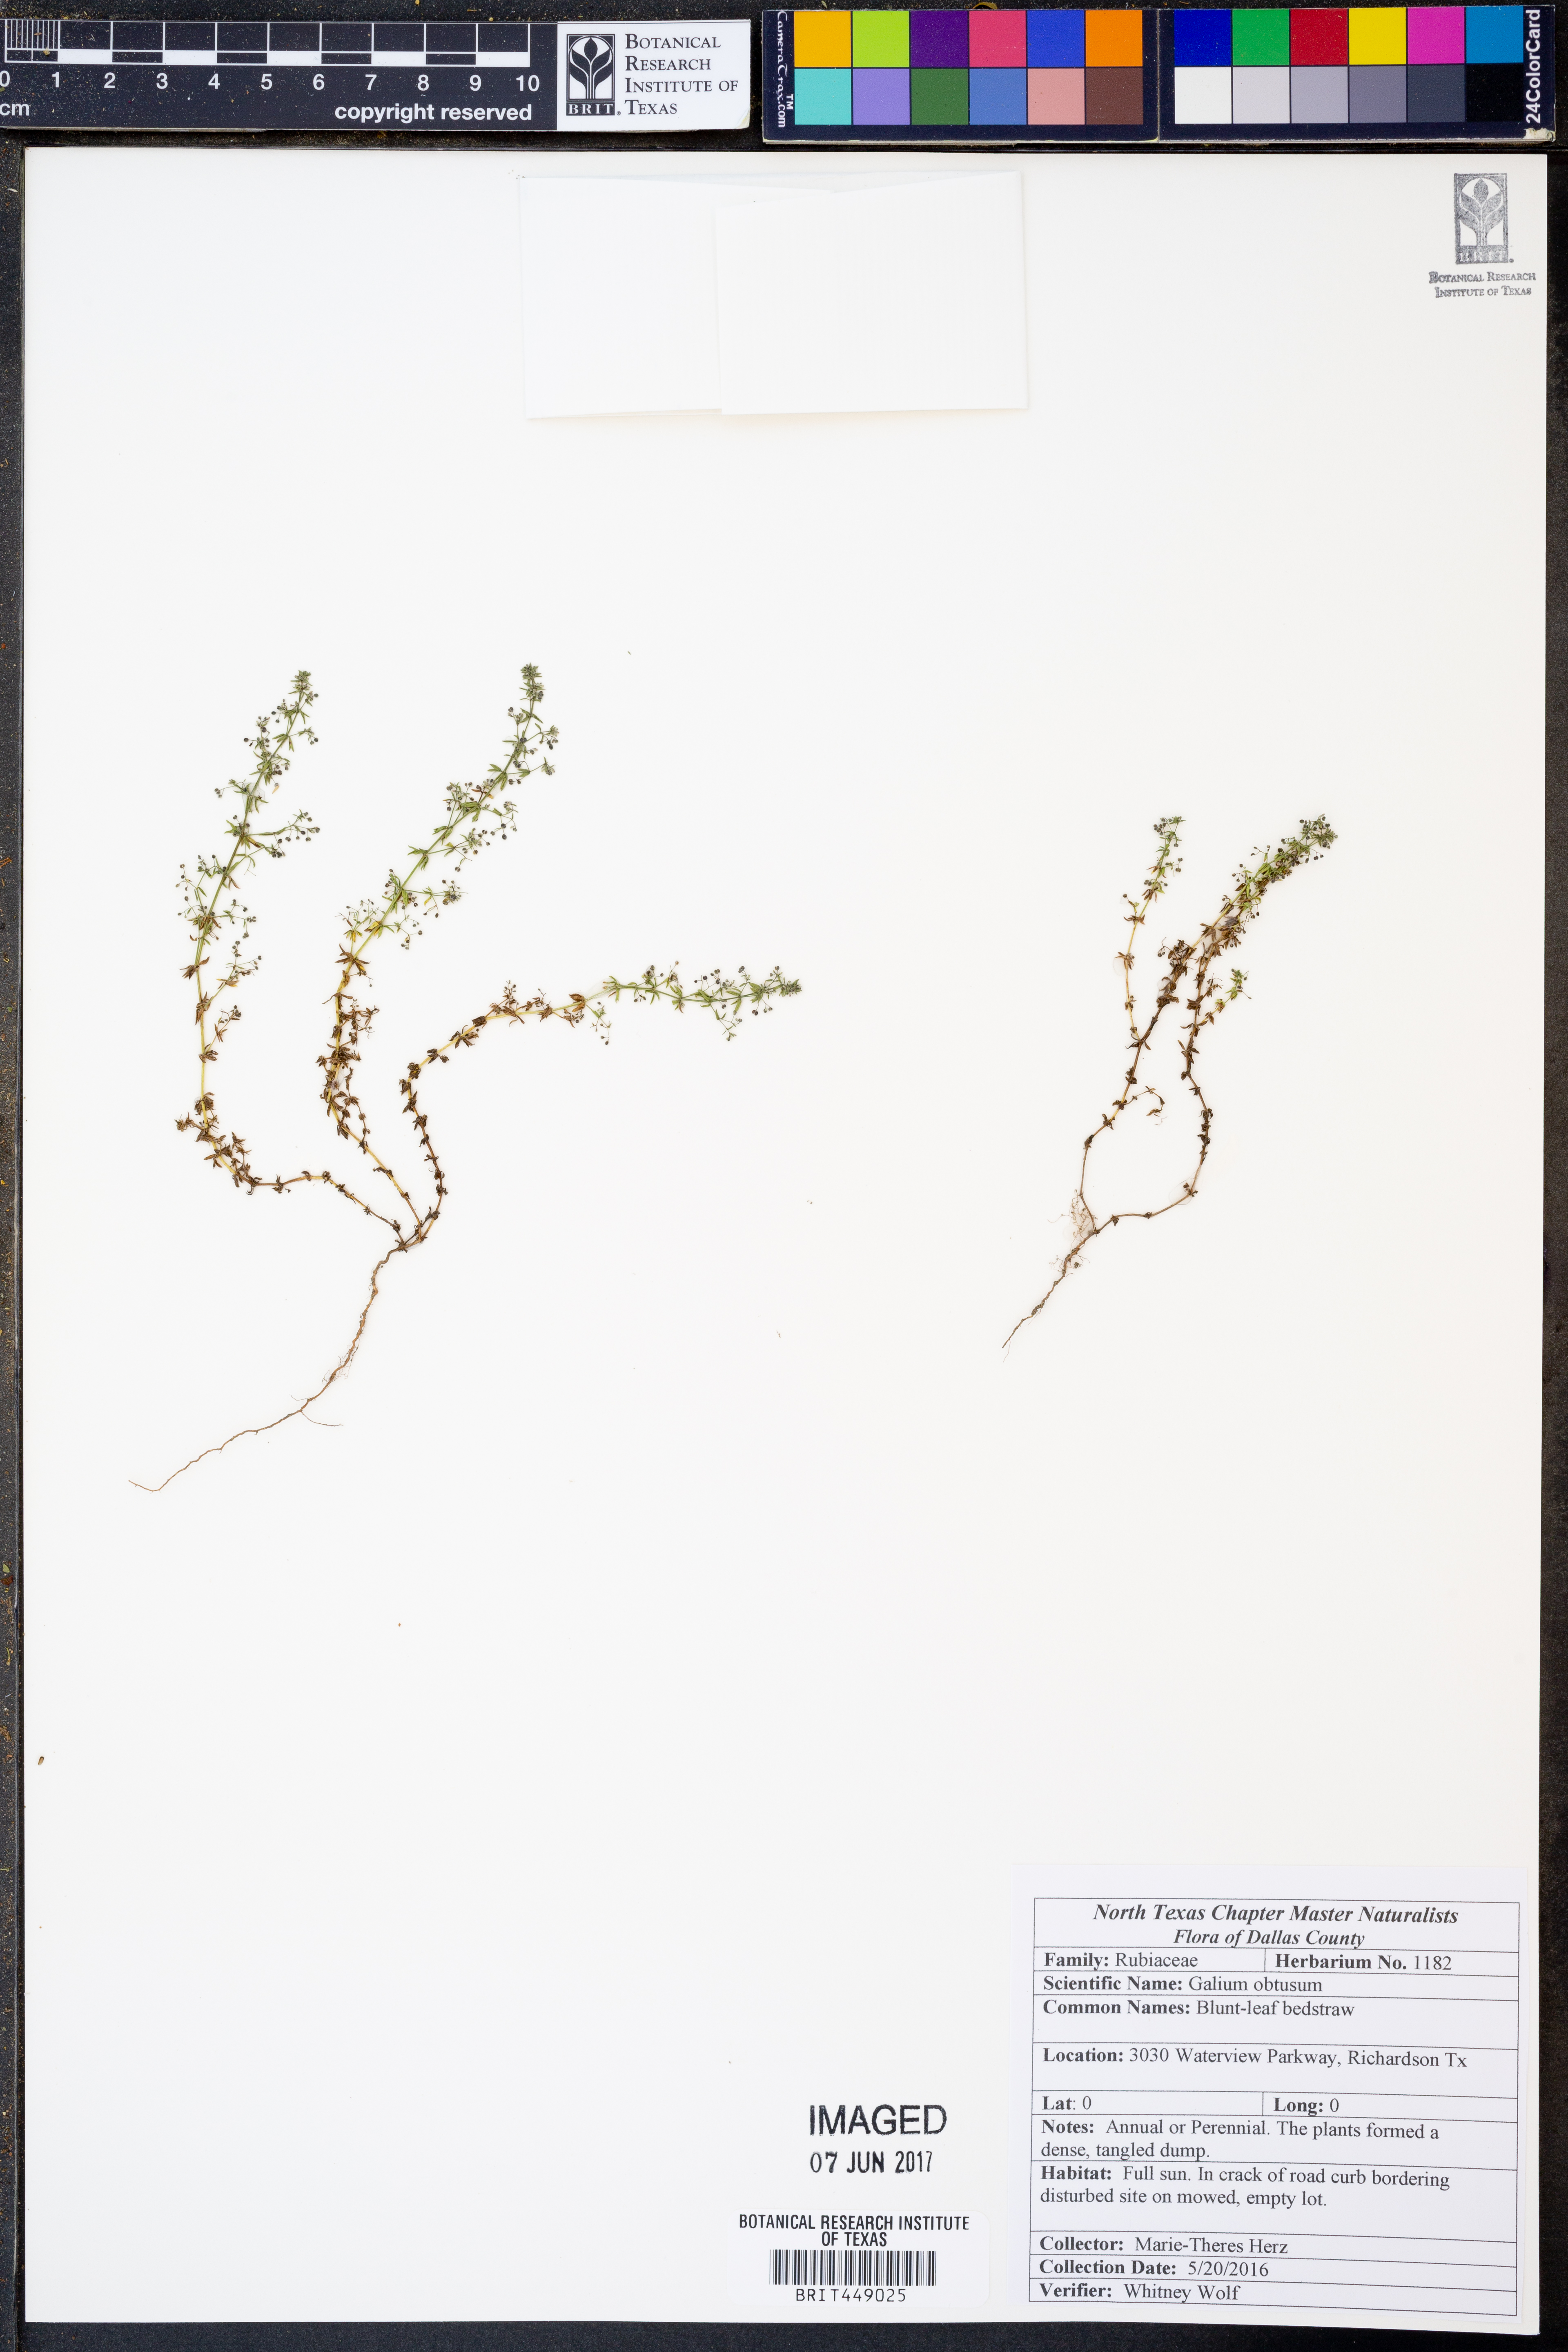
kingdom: Plantae
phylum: Tracheophyta
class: Magnoliopsida
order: Gentianales
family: Rubiaceae
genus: Galium
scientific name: Galium parisiense
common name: Wall bedstraw
